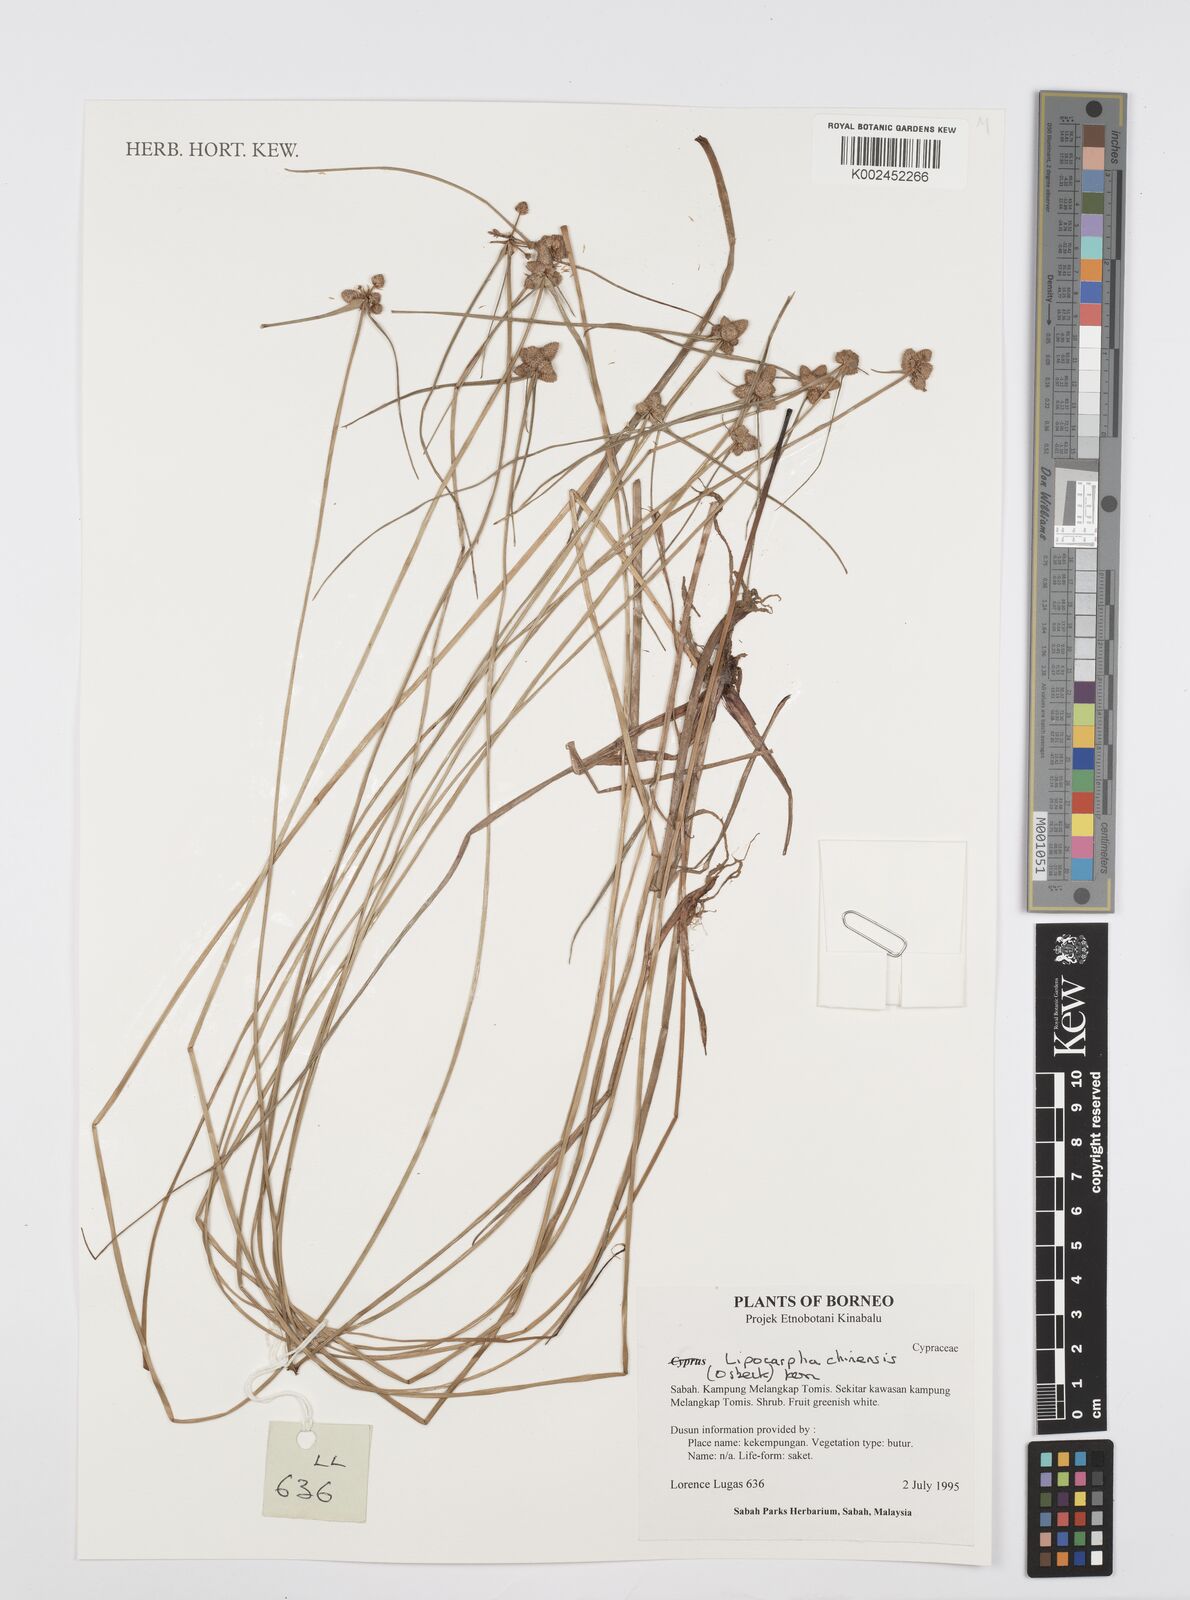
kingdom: Plantae
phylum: Tracheophyta
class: Liliopsida
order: Poales
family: Cyperaceae
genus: Cyperus
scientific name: Cyperus
